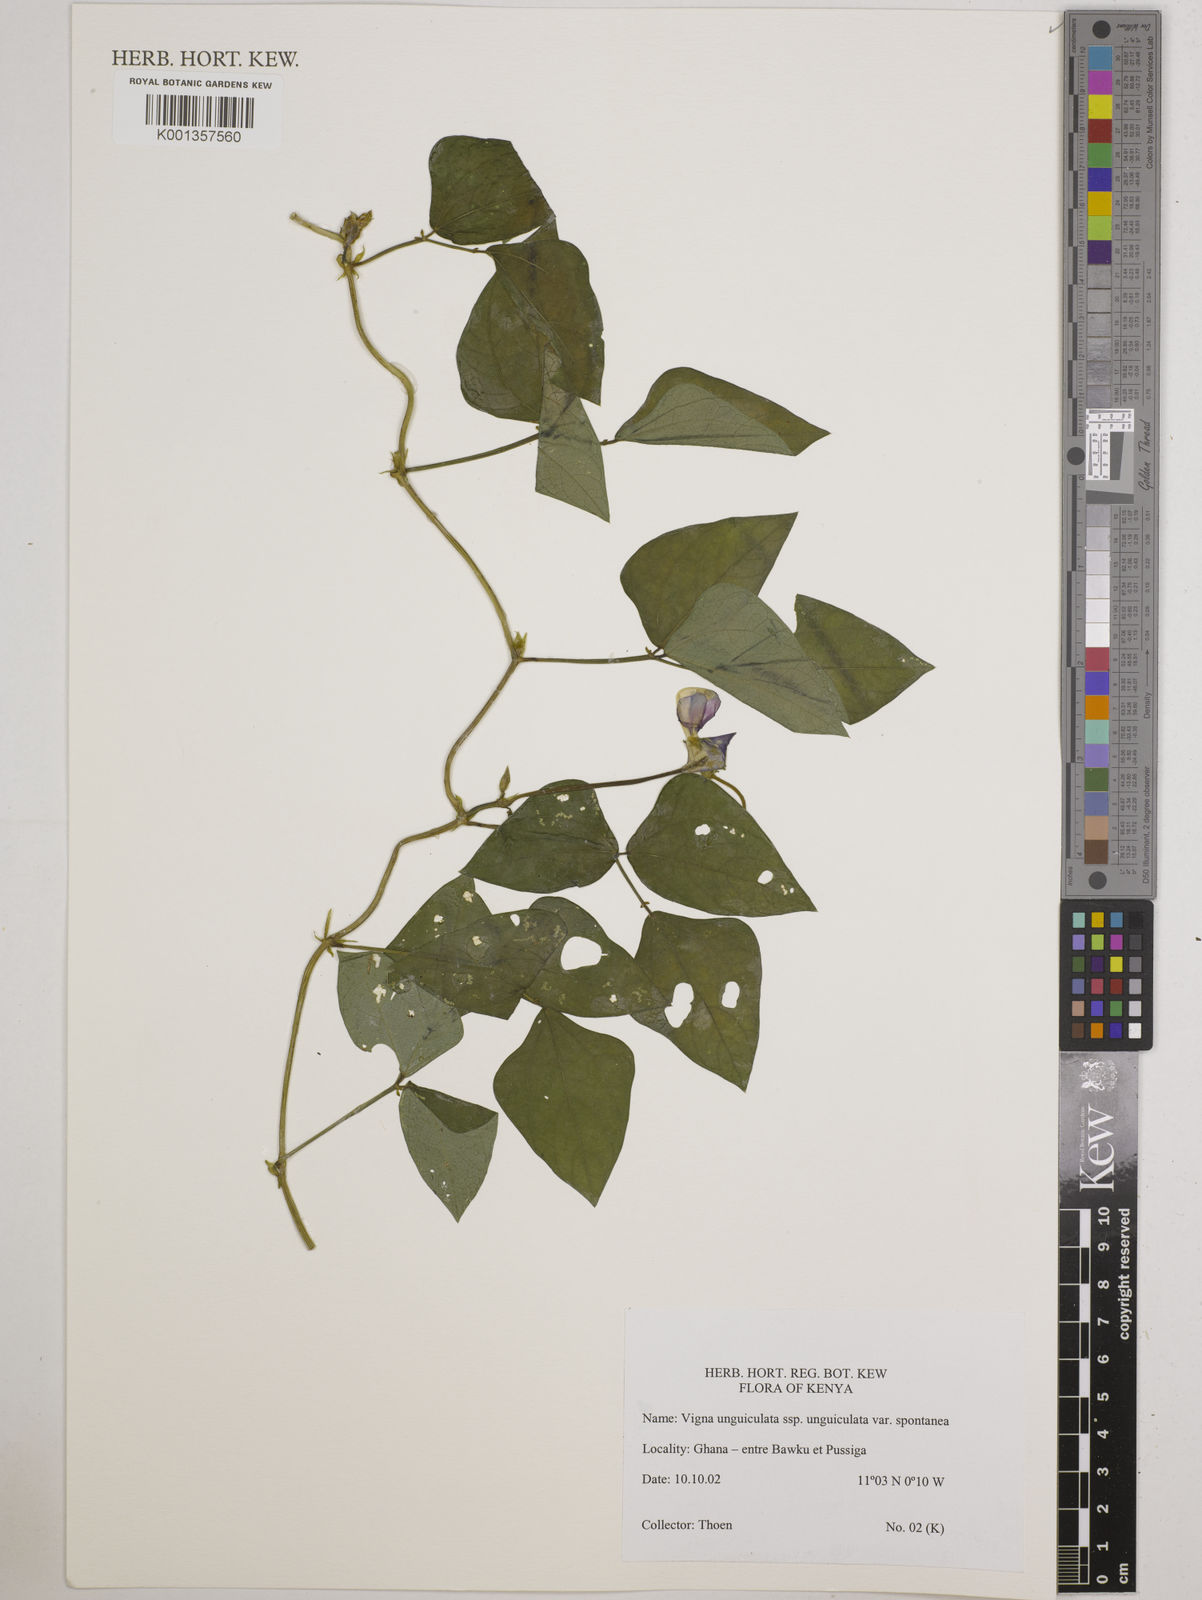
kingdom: Plantae
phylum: Tracheophyta
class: Magnoliopsida
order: Fabales
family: Fabaceae
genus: Vigna
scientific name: Vigna unguiculata
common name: Cowpea
